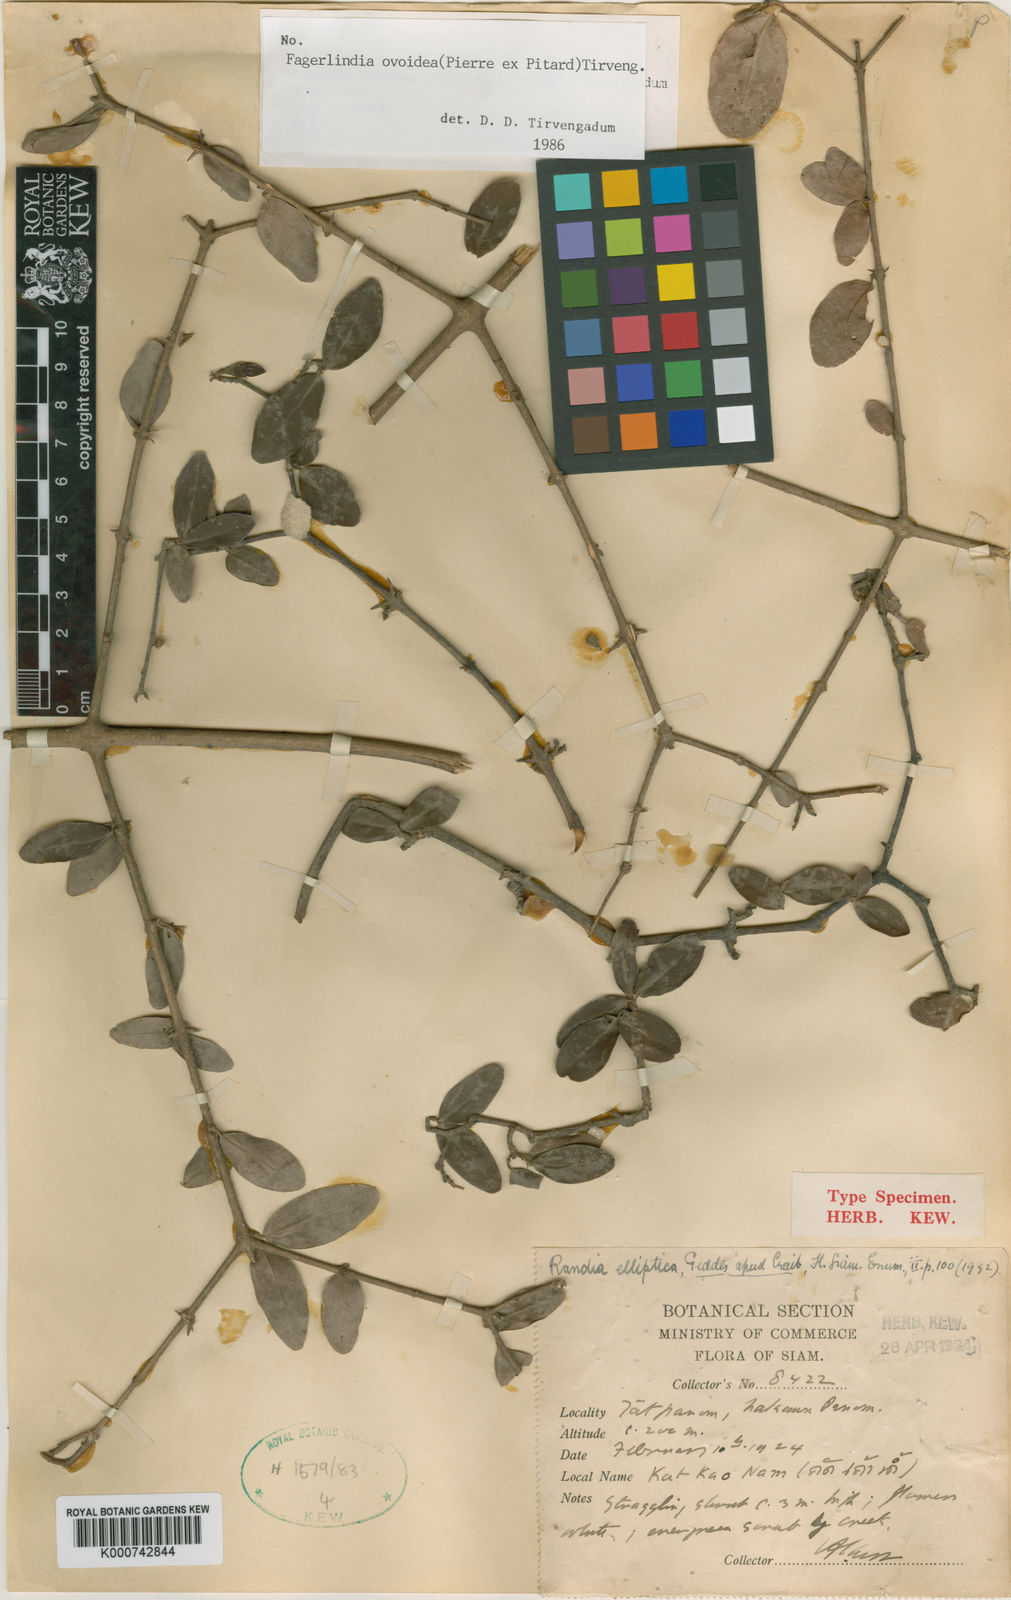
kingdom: Plantae
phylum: Tracheophyta
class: Magnoliopsida
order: Gentianales
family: Rubiaceae
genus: Benkara
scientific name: Benkara ovoidea
